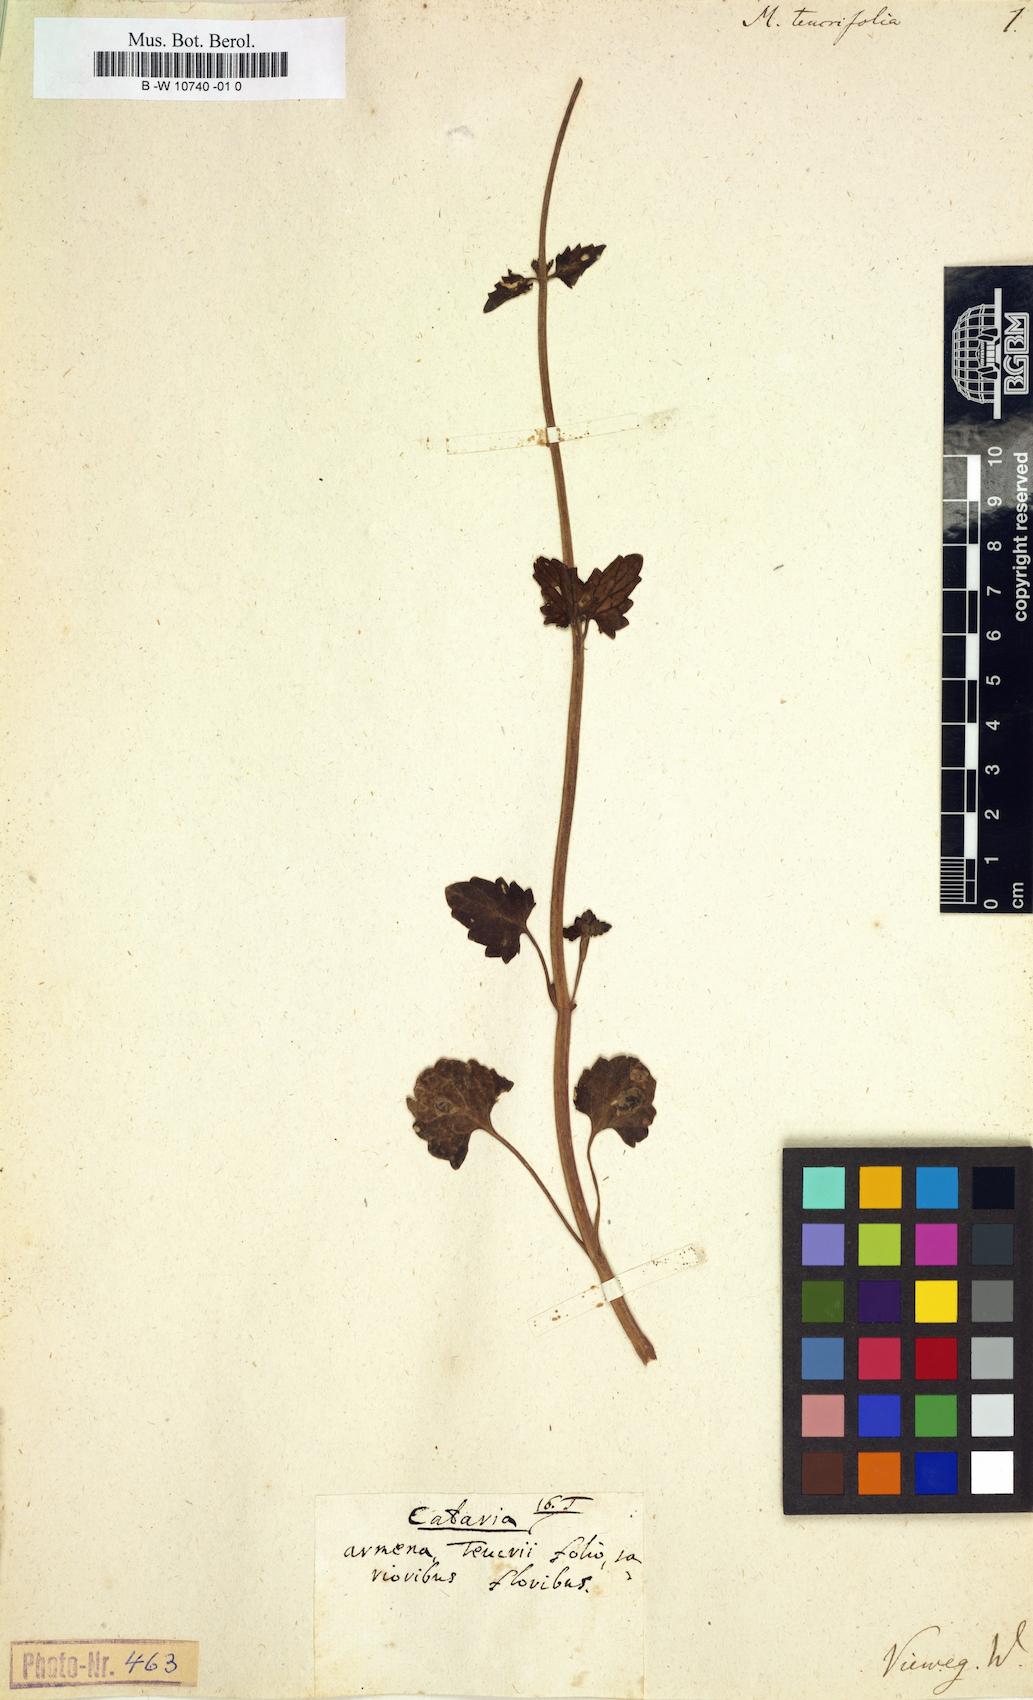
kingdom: Plantae
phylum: Tracheophyta
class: Magnoliopsida
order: Lamiales
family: Lamiaceae
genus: Nepeta
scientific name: Nepeta teucriifolia
